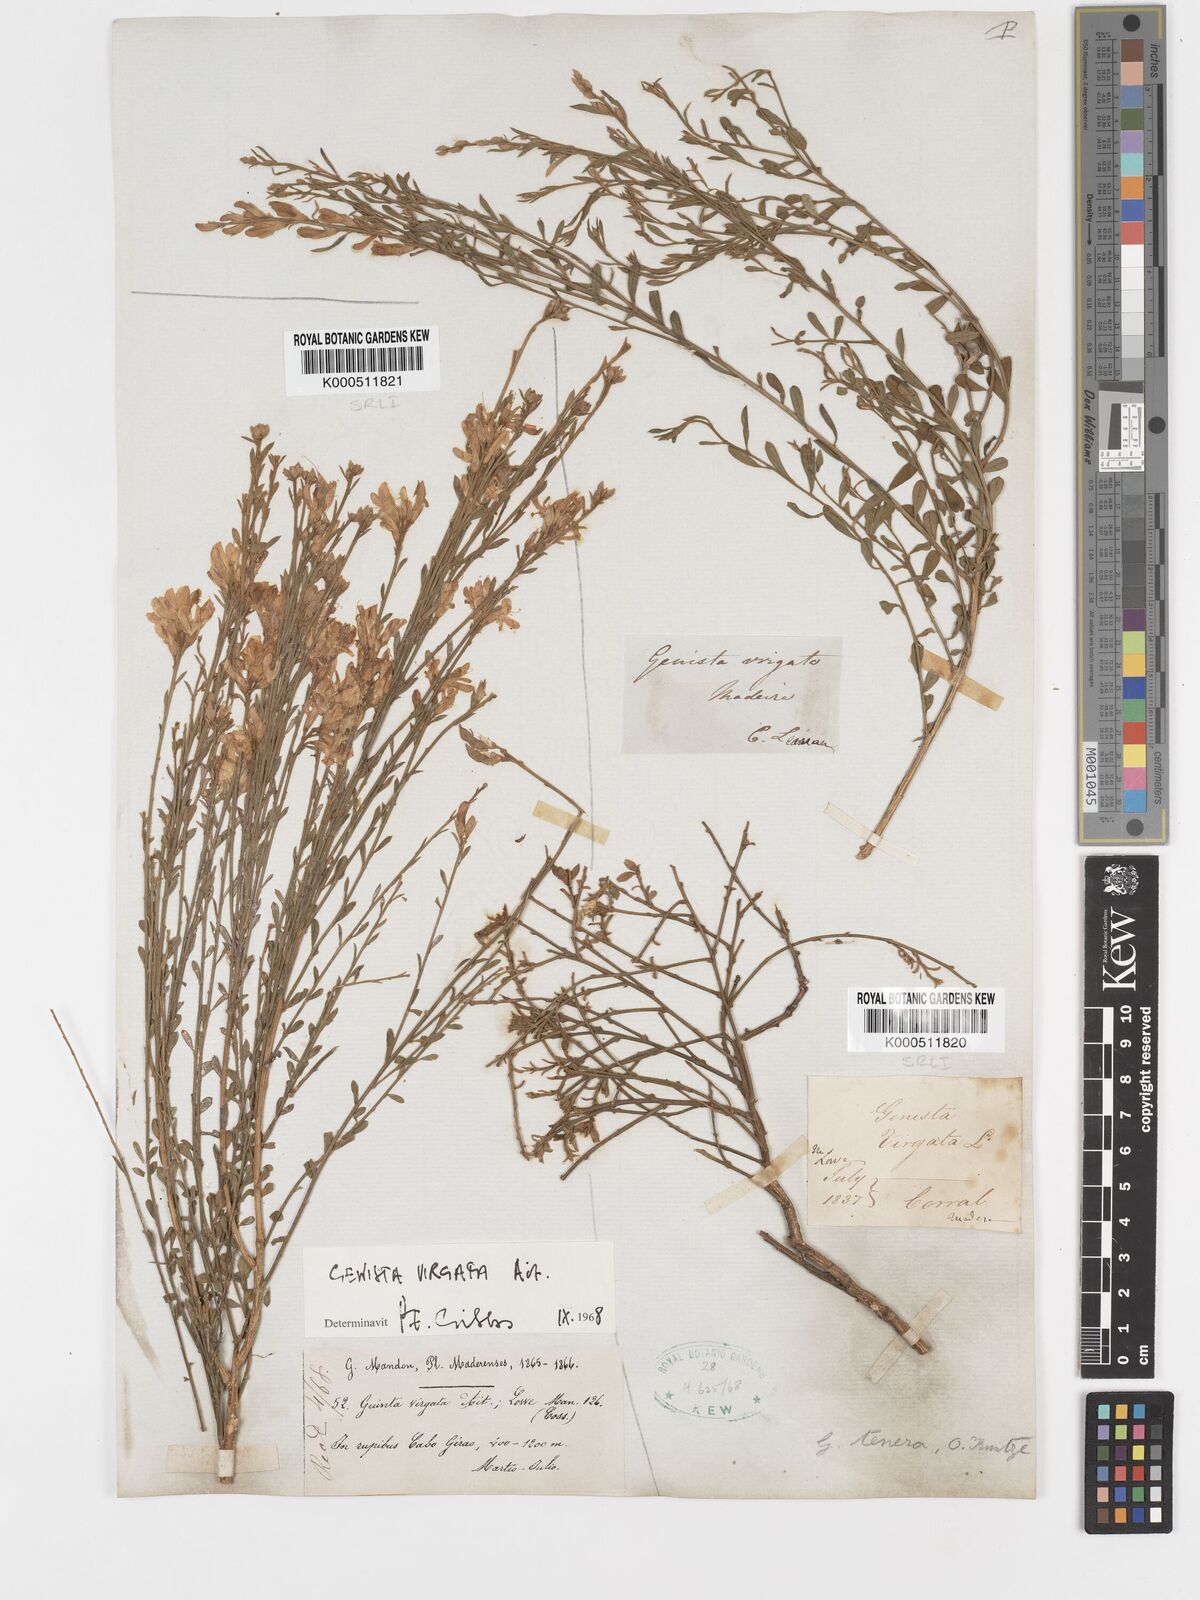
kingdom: Plantae
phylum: Tracheophyta
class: Magnoliopsida
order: Fabales
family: Fabaceae
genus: Genista
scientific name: Genista tenera
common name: Madeira broom
